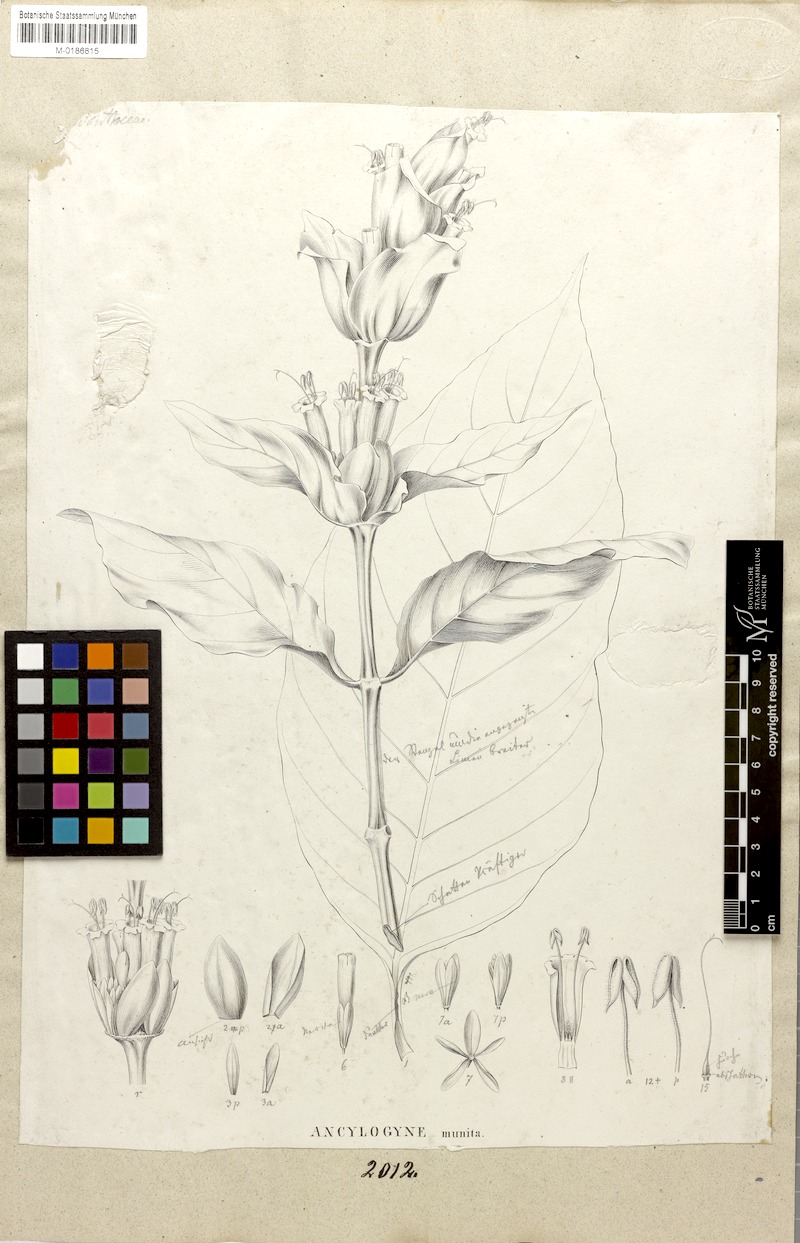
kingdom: Plantae
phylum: Tracheophyta
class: Magnoliopsida
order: Lamiales
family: Acanthaceae
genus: Sanchezia
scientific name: Sanchezia munita
